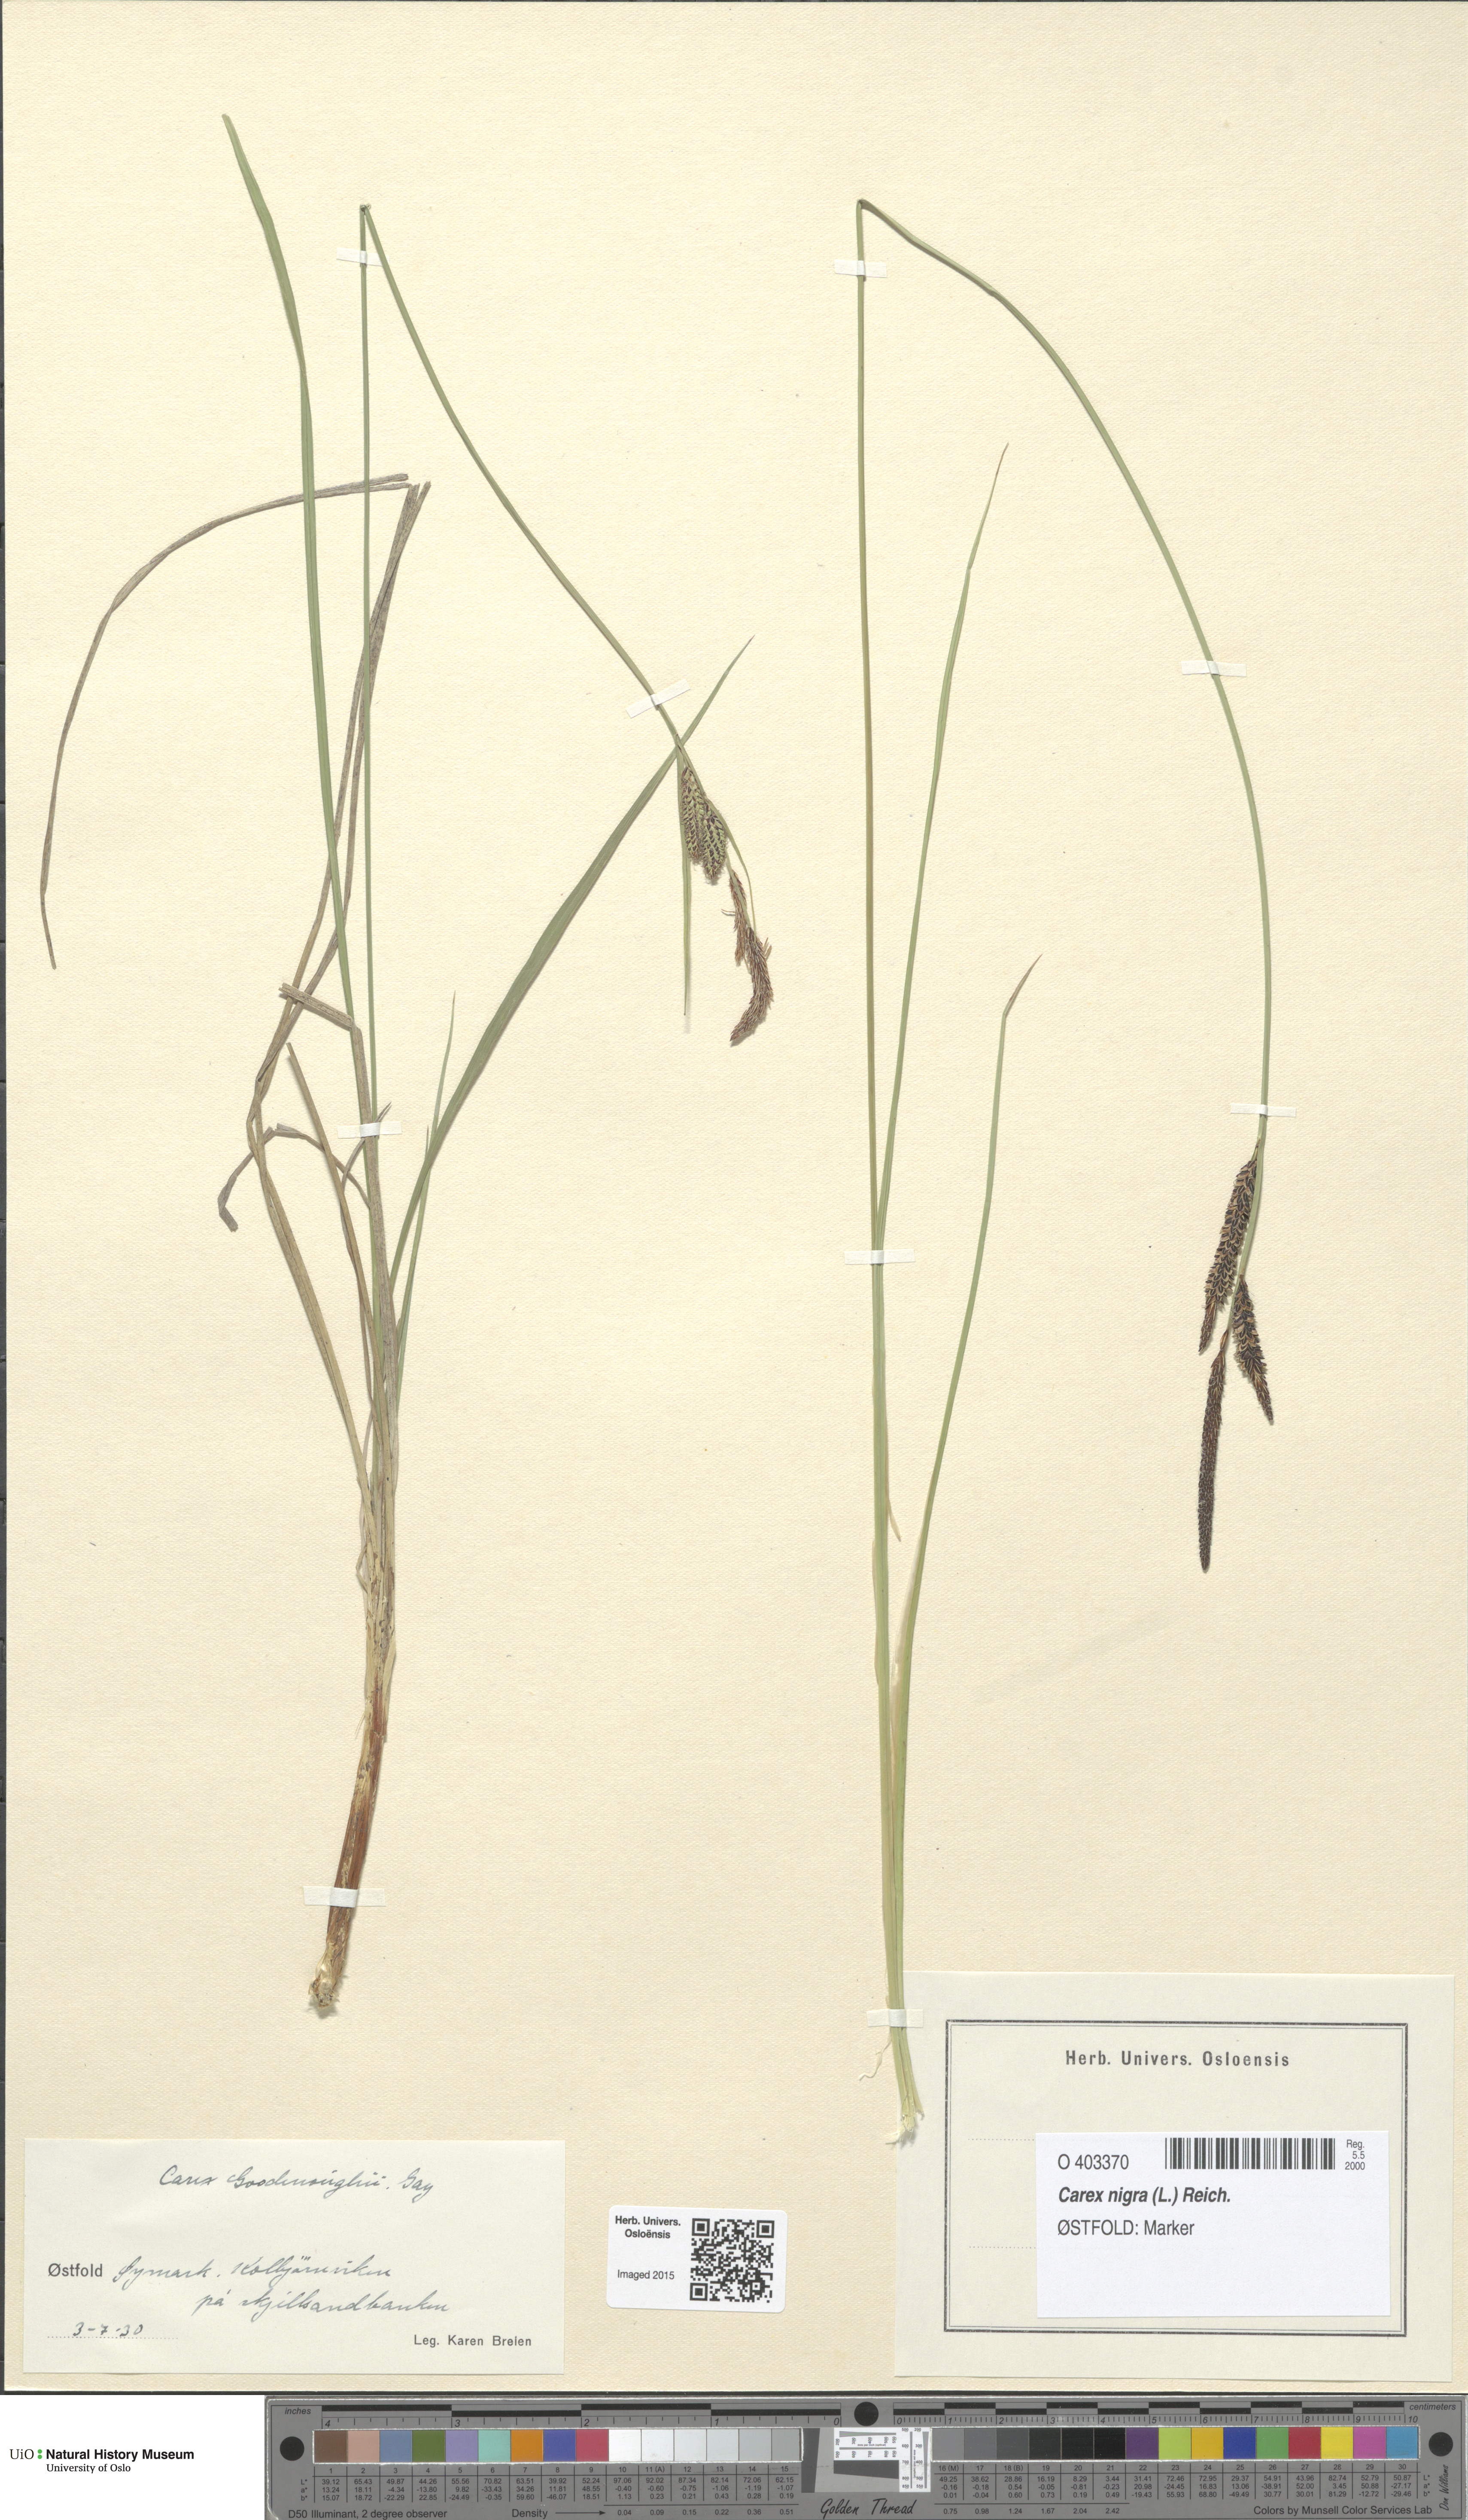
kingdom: Plantae
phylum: Tracheophyta
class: Liliopsida
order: Poales
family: Cyperaceae
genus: Carex
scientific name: Carex nigra
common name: Common sedge
